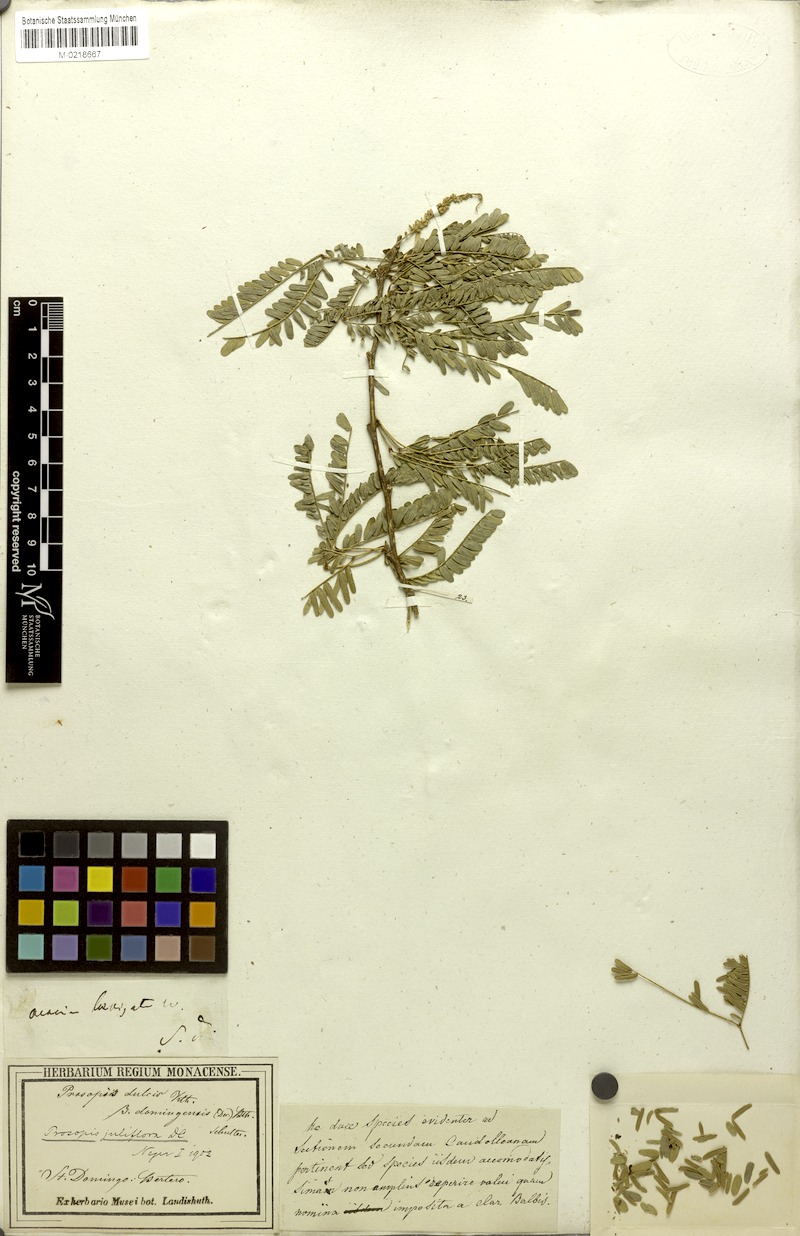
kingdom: Plantae
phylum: Tracheophyta
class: Magnoliopsida
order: Fabales
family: Fabaceae
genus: Prosopis
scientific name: Prosopis juliflora
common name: Mesquite
